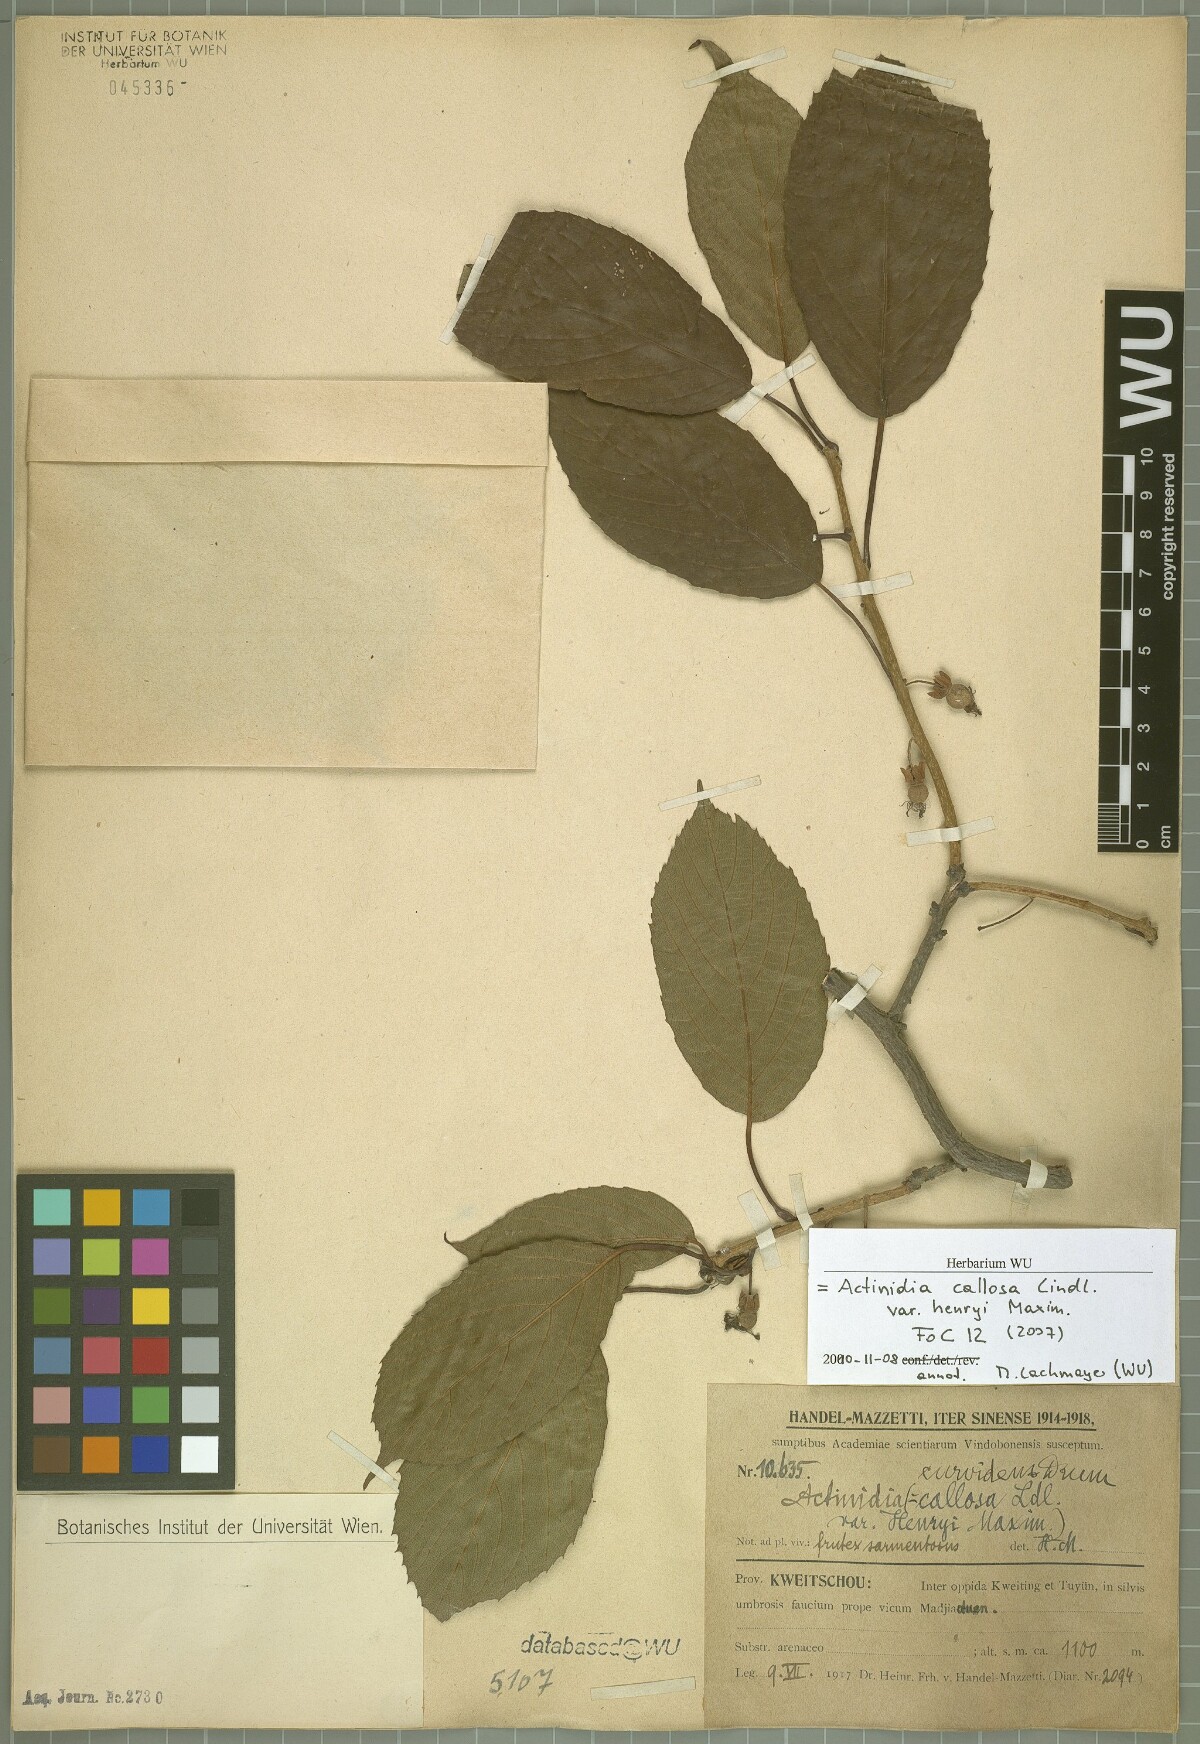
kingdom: Plantae
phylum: Tracheophyta
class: Magnoliopsida
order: Ericales
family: Actinidiaceae
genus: Actinidia
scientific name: Actinidia callosa
